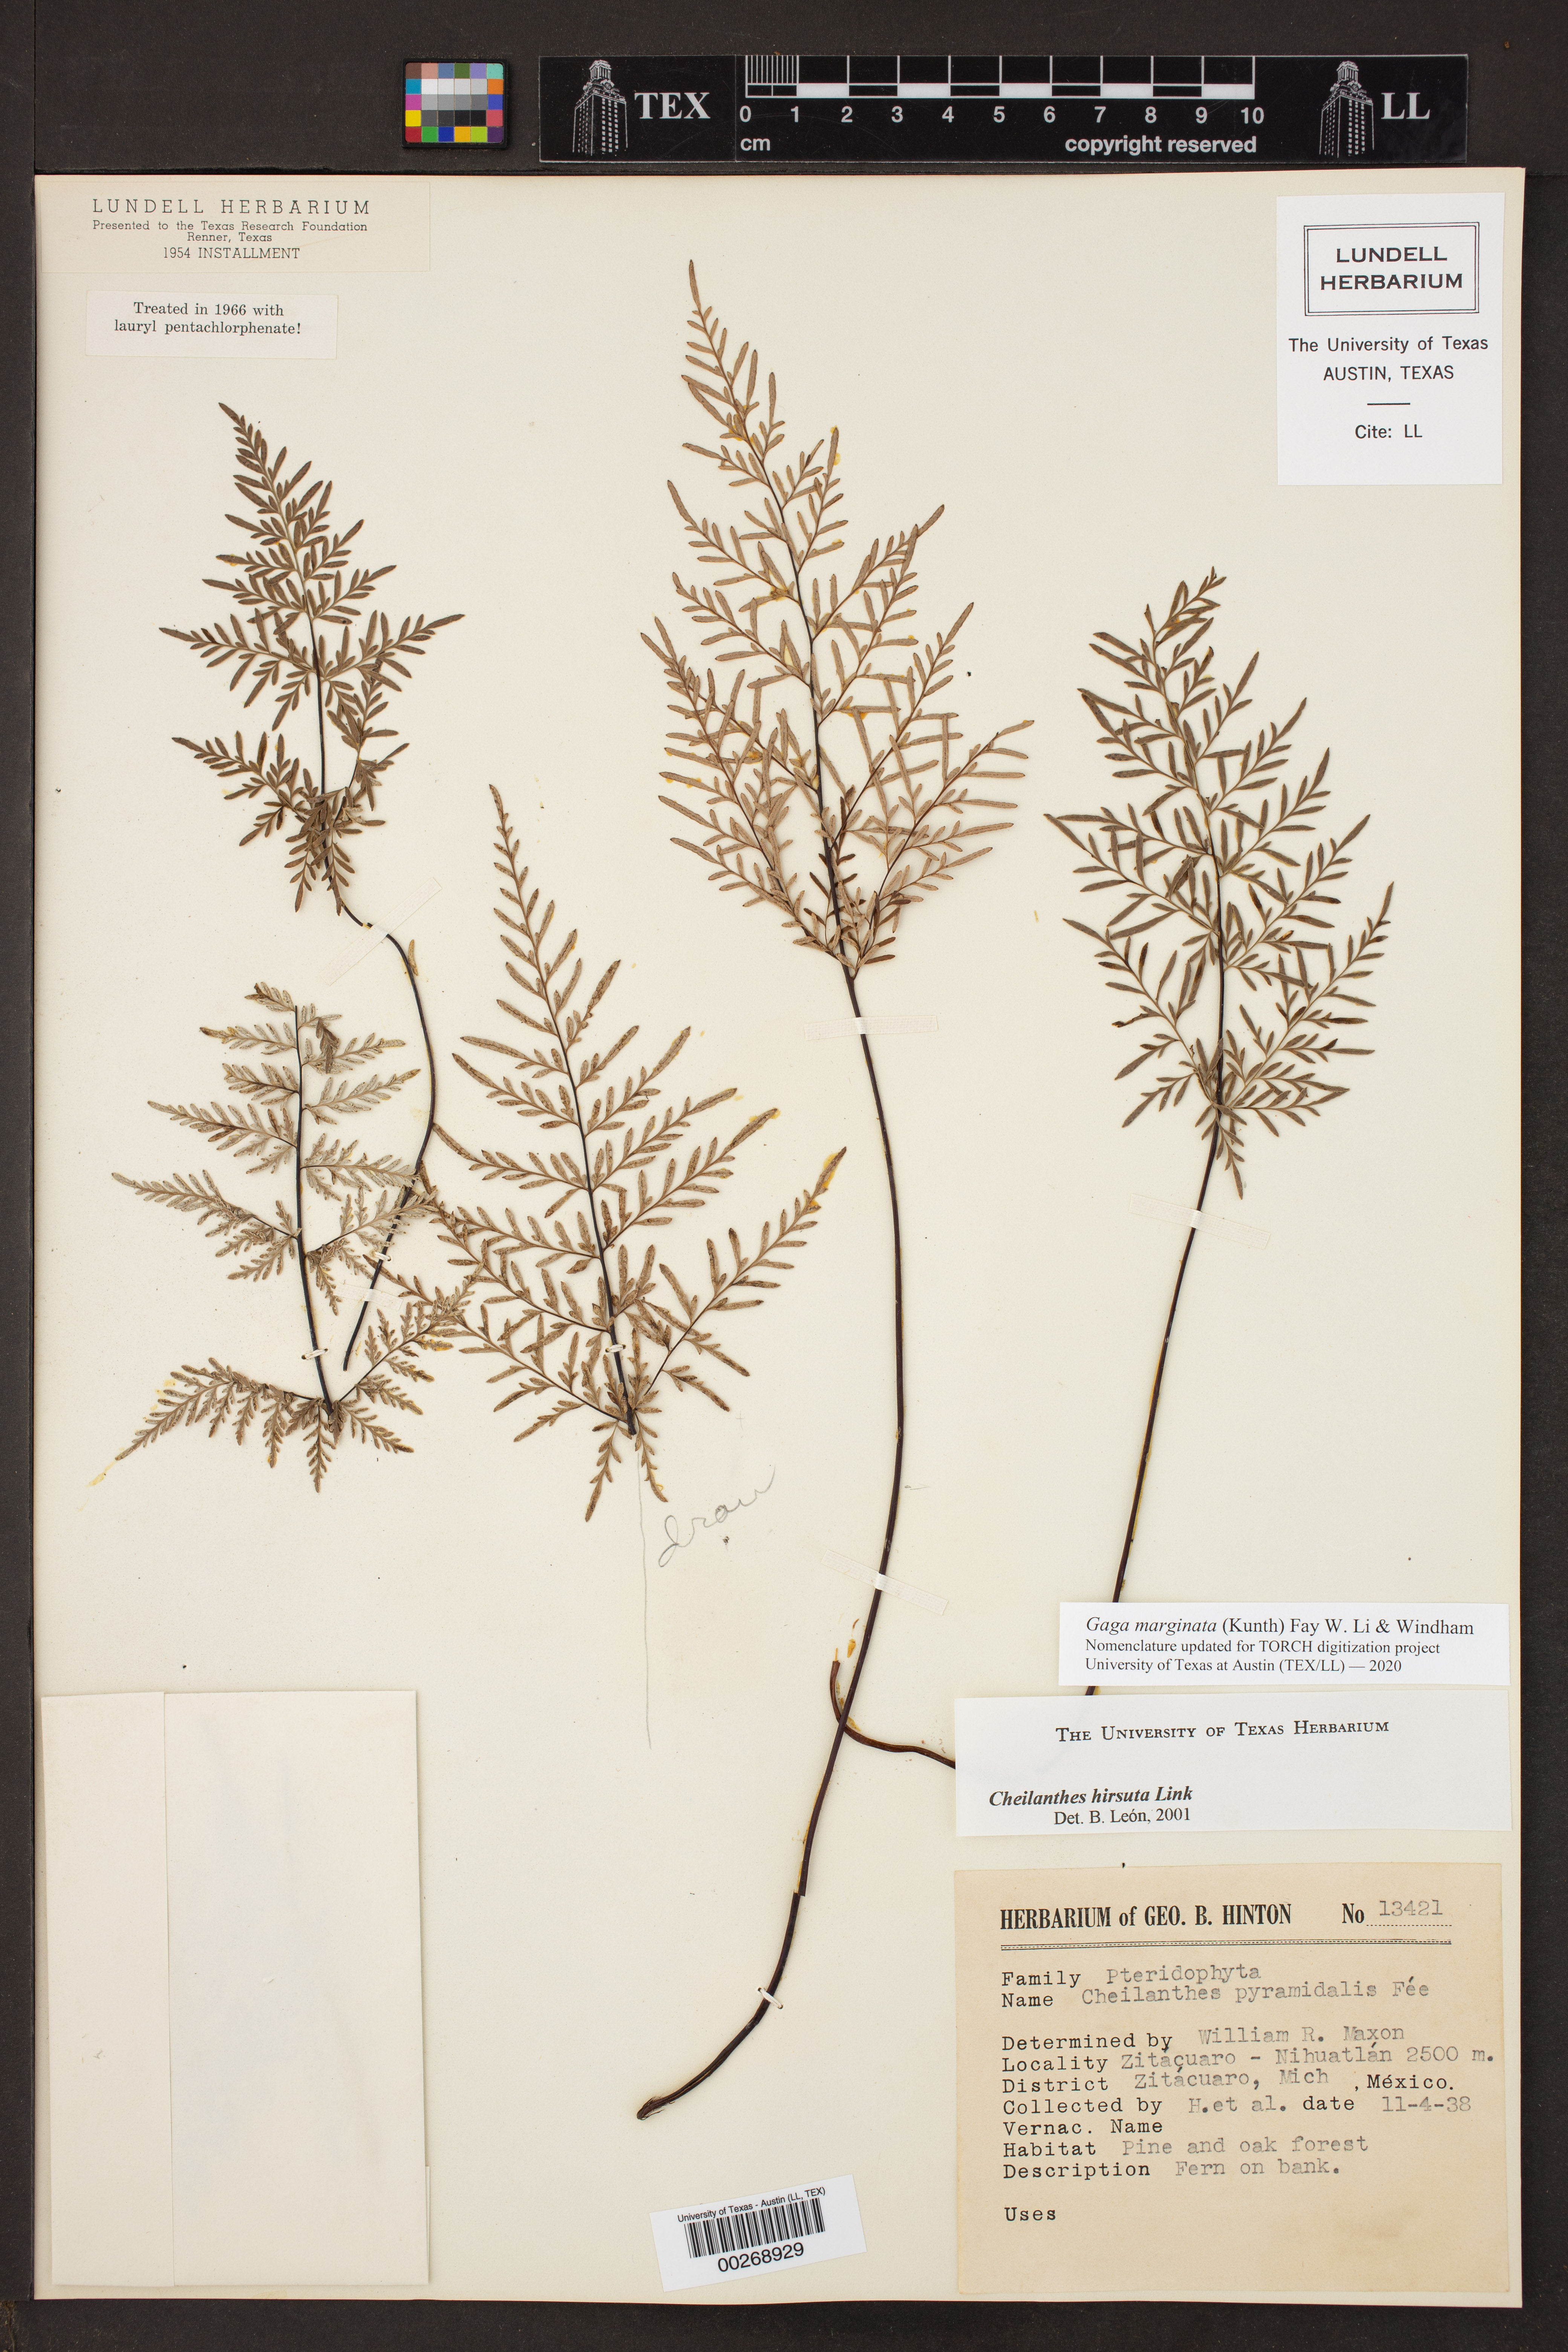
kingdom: Plantae
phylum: Tracheophyta
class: Polypodiopsida
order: Polypodiales
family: Pteridaceae
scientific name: Pteridaceae
